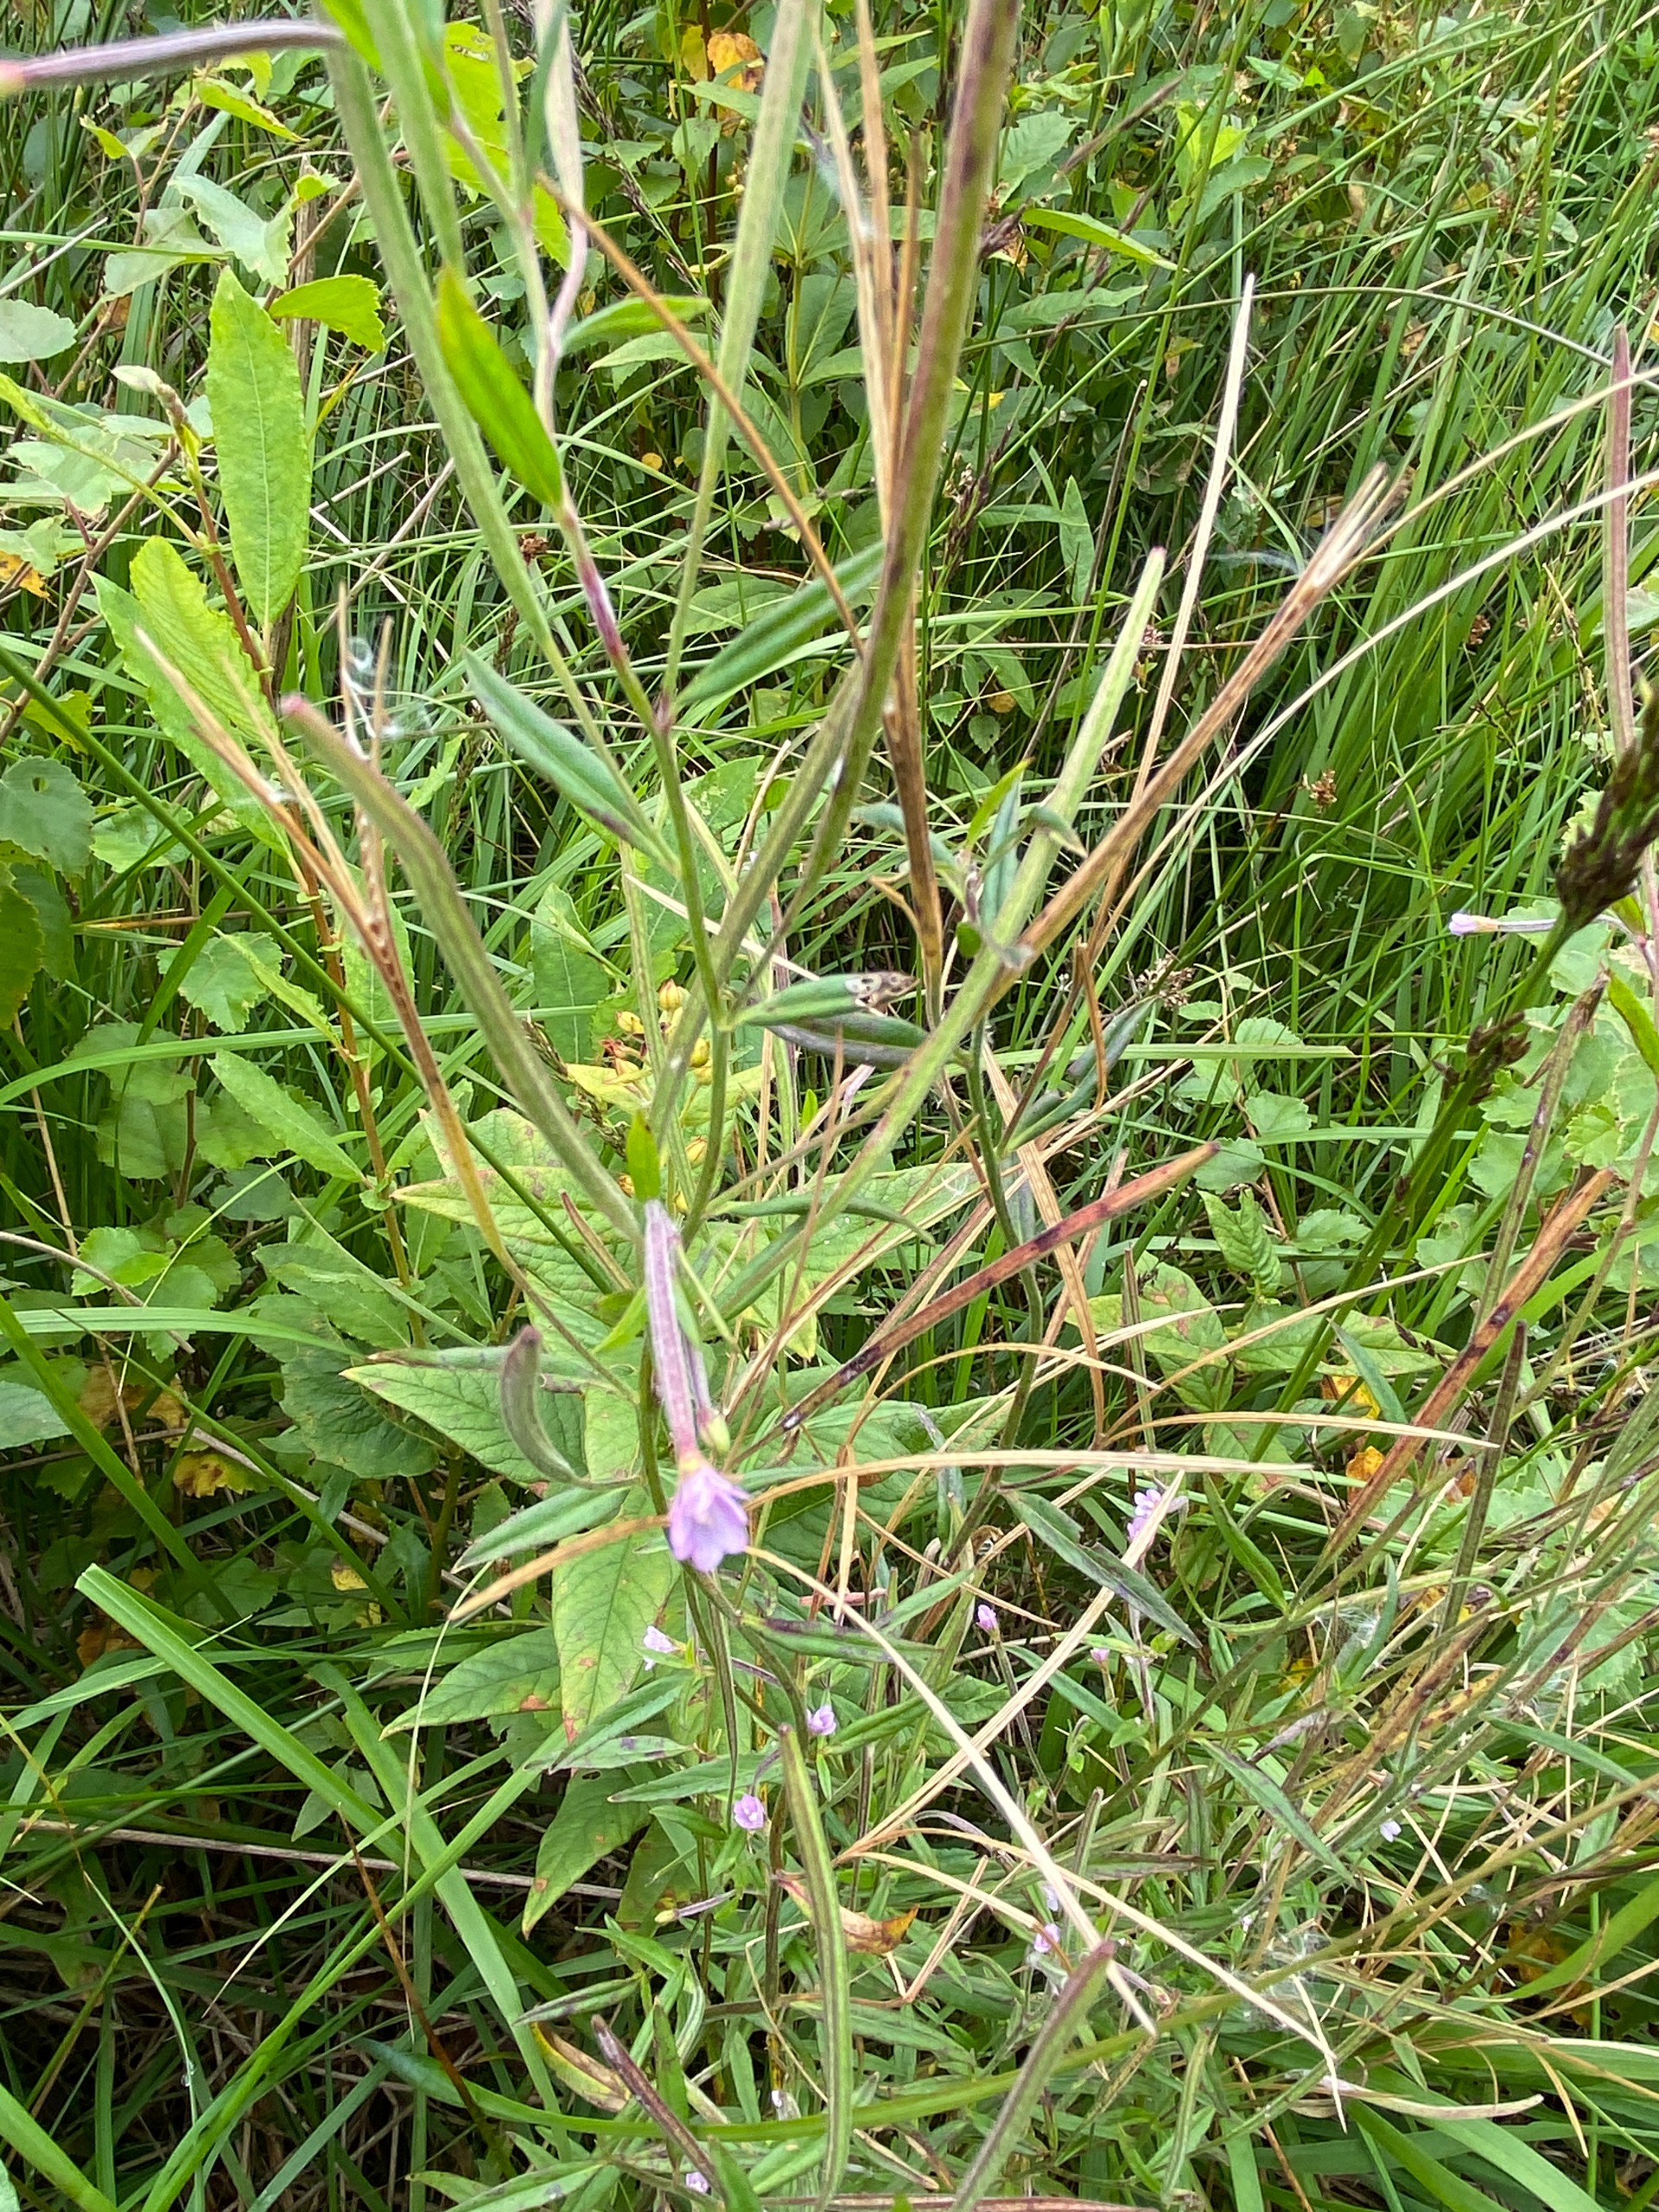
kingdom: Plantae
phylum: Tracheophyta
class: Magnoliopsida
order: Myrtales
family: Onagraceae
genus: Epilobium
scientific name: Epilobium palustre
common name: Kær-dueurt
